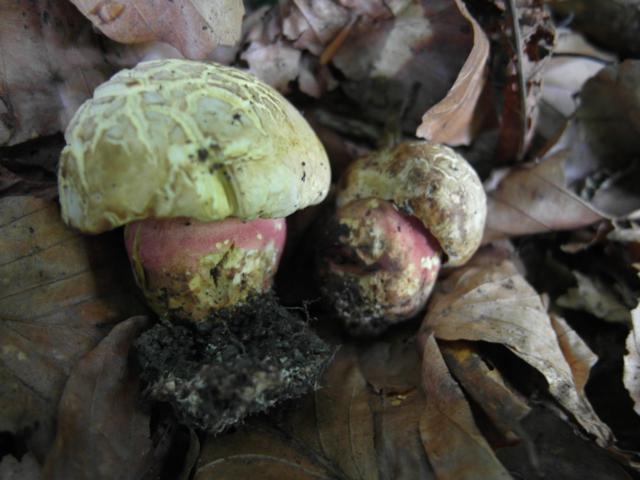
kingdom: Fungi
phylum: Basidiomycota
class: Agaricomycetes
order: Boletales
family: Boletaceae
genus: Rubroboletus
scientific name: Rubroboletus satanas
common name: Satans rørhat
